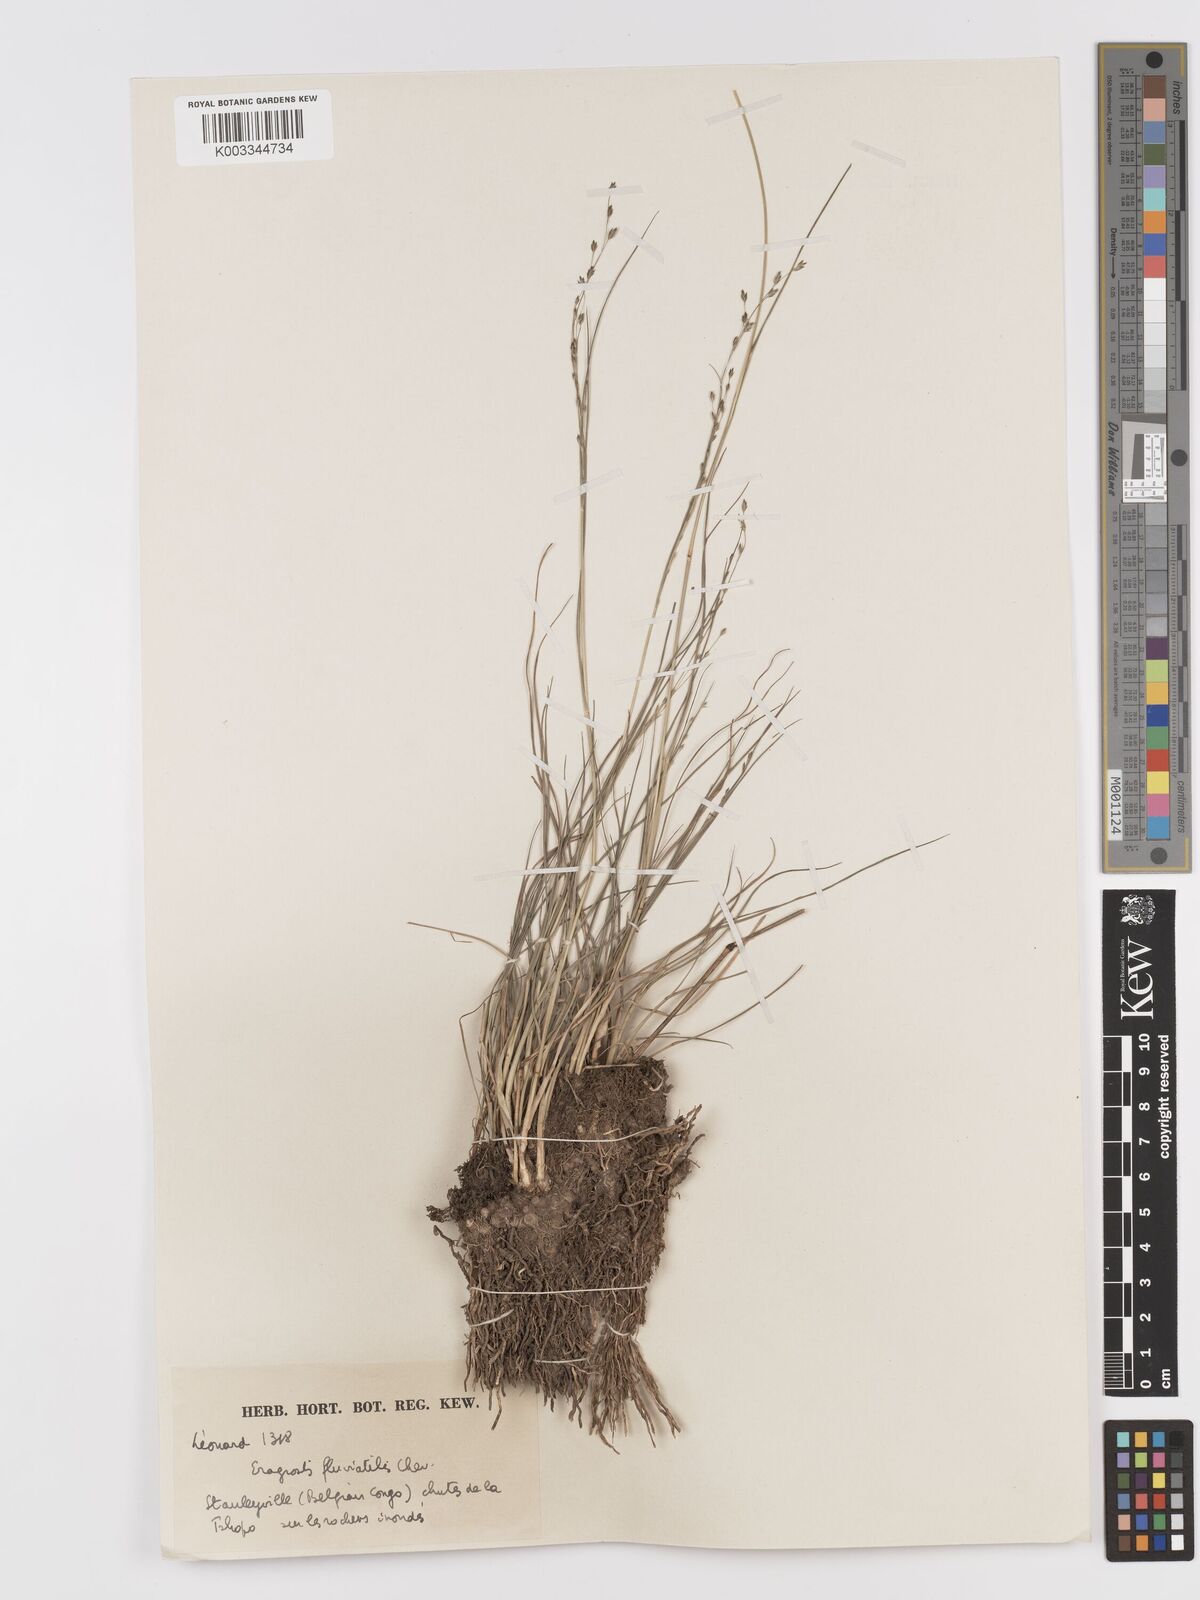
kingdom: Plantae
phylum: Tracheophyta
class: Liliopsida
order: Poales
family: Poaceae
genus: Eragrostis
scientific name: Eragrostis barteri
